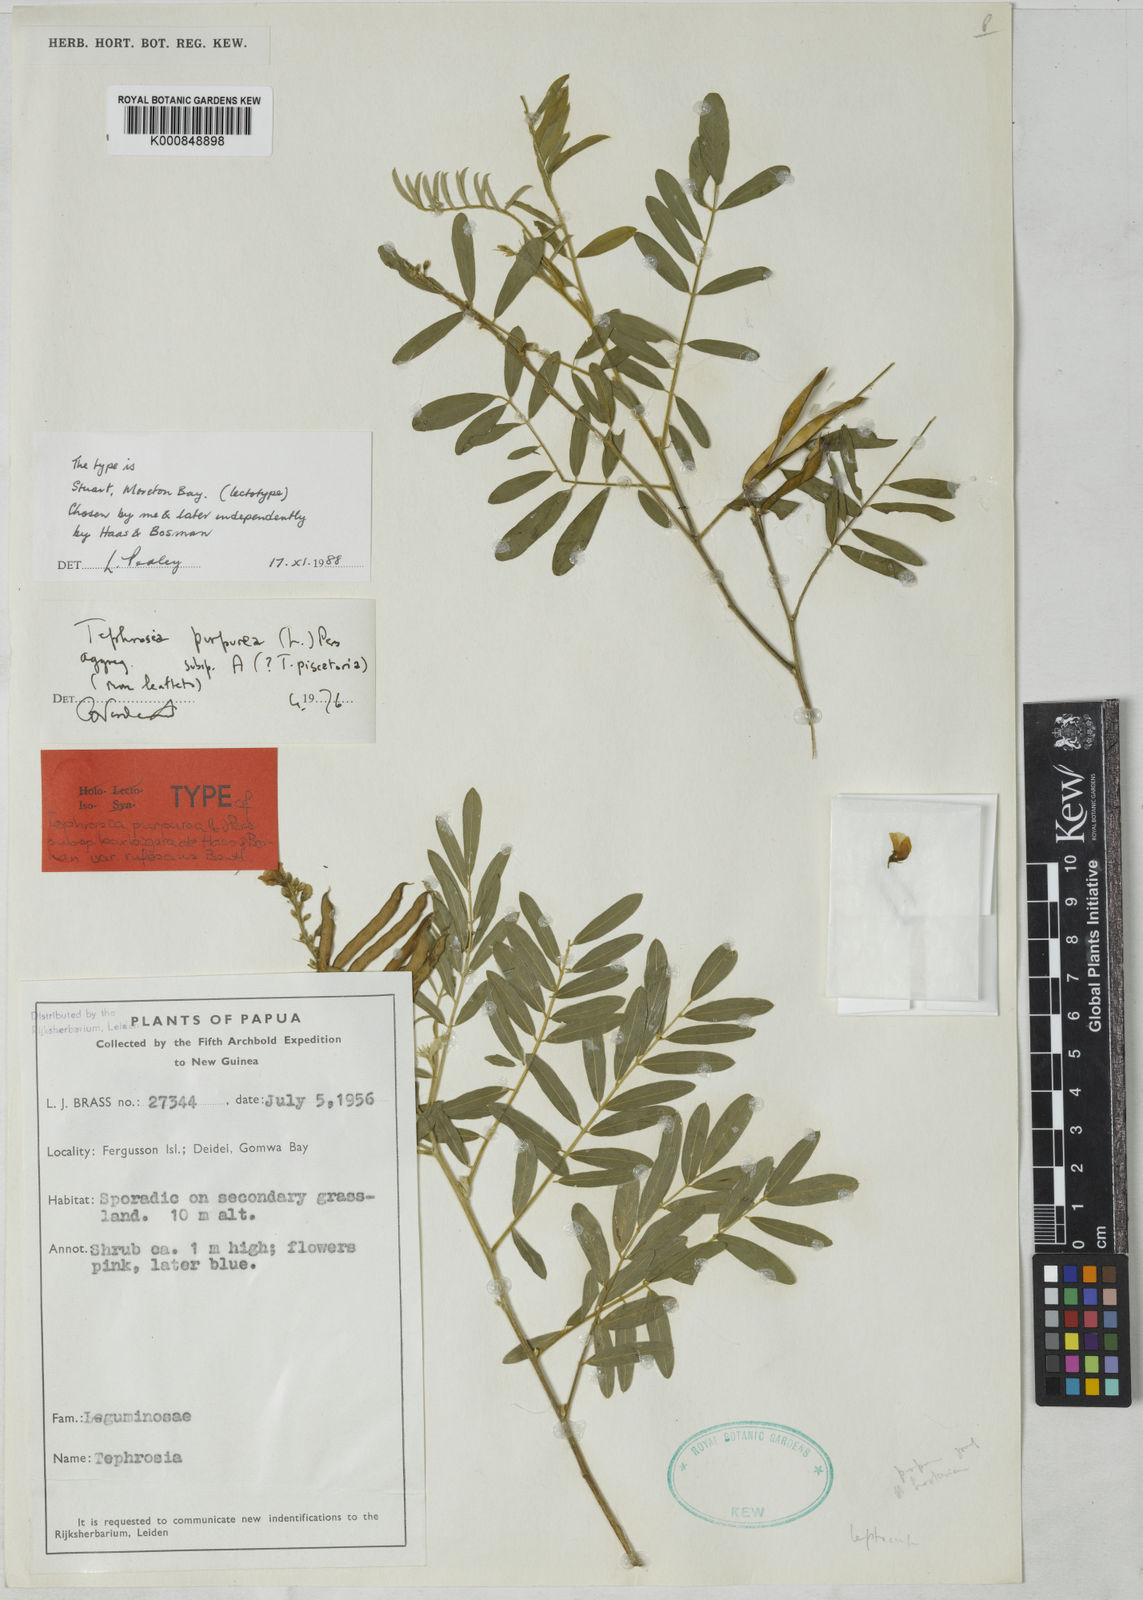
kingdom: Plantae
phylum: Tracheophyta
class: Magnoliopsida
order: Fabales
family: Fabaceae
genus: Tephrosia
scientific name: Tephrosia purpurea
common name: Fishpoison
